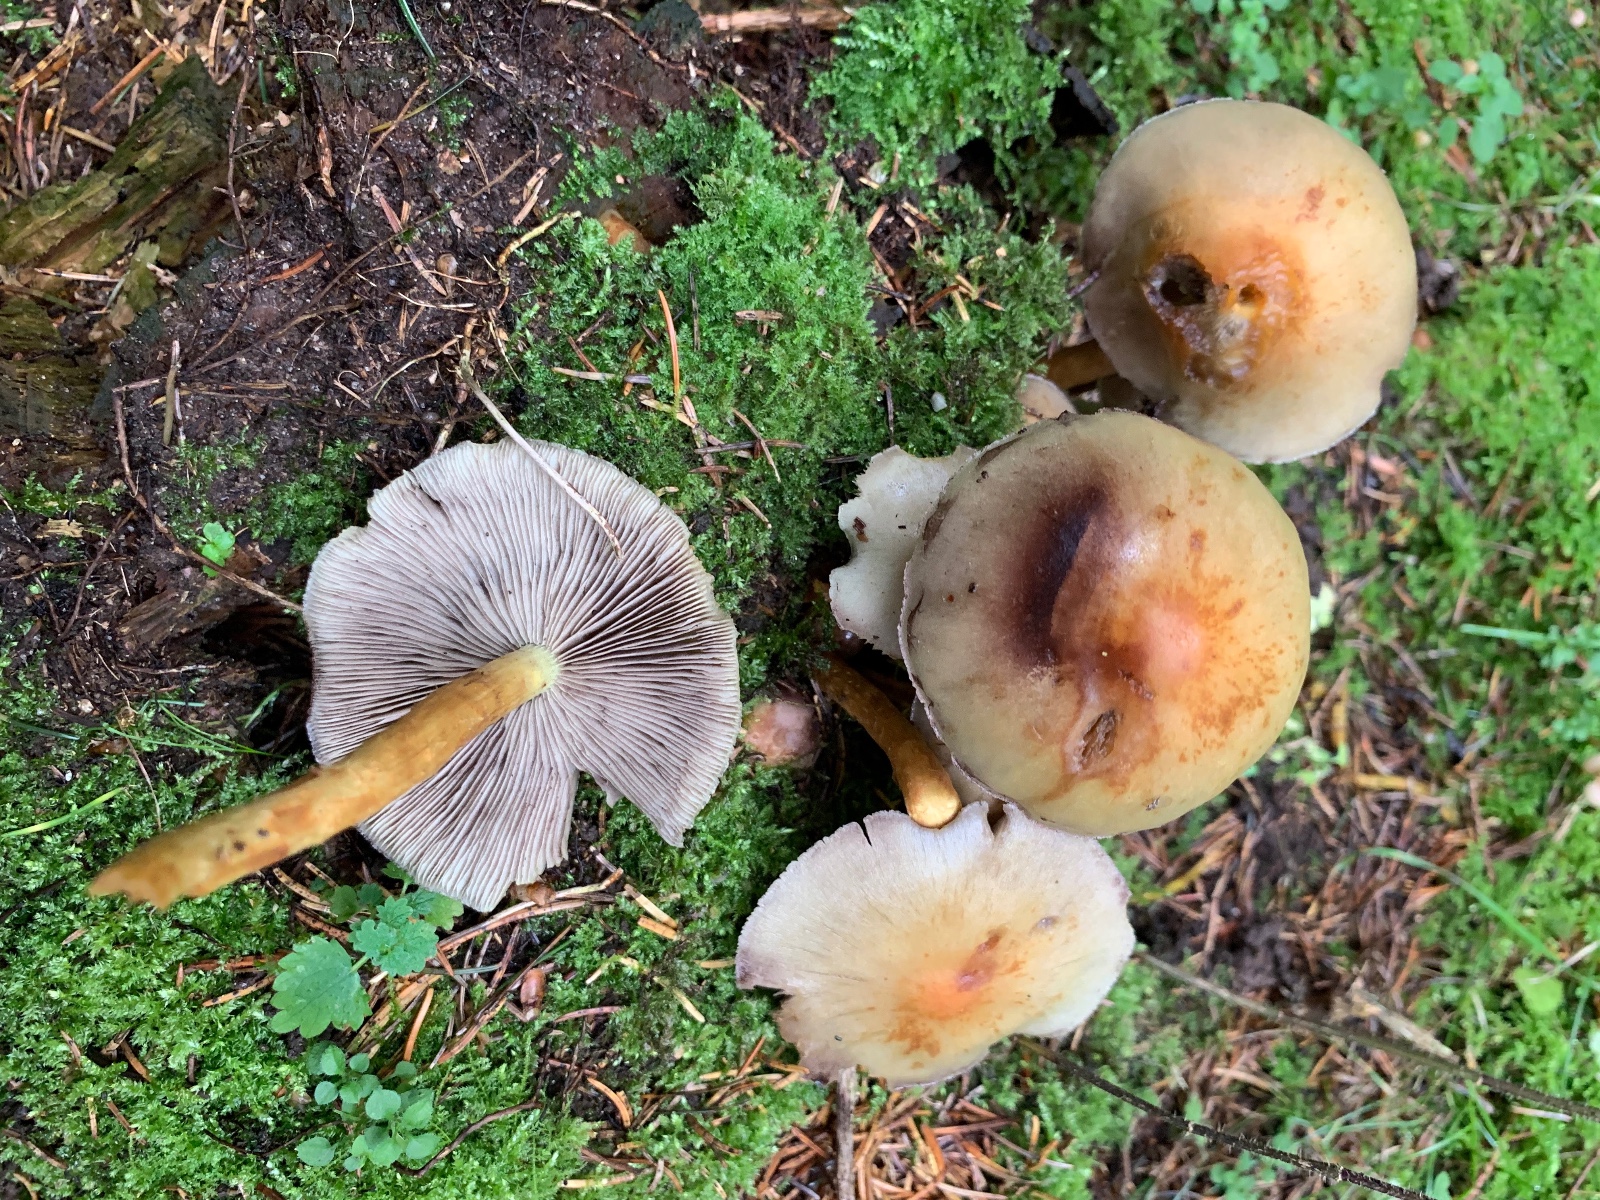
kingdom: Fungi
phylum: Basidiomycota
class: Agaricomycetes
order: Agaricales
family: Strophariaceae
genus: Hypholoma
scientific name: Hypholoma capnoides
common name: gran-svovlhat
